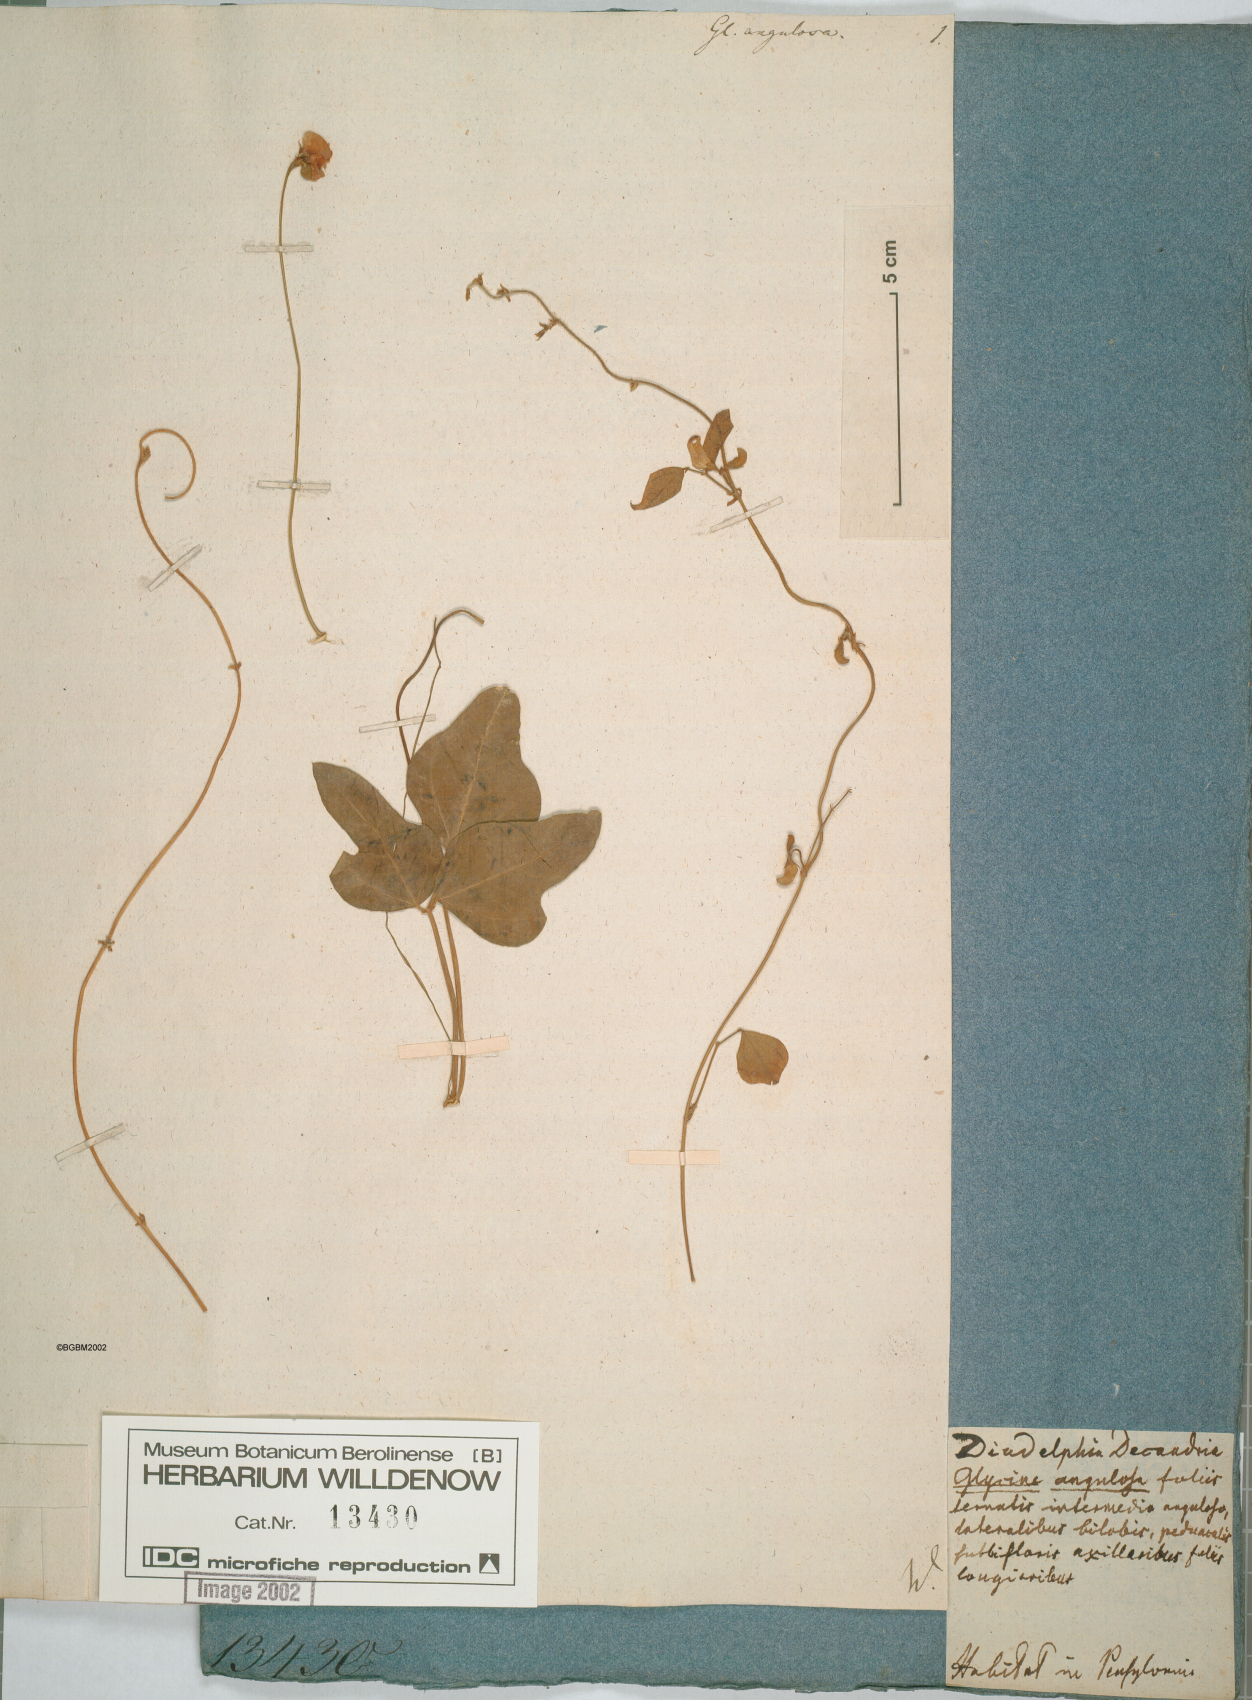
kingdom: Plantae
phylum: Tracheophyta
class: Magnoliopsida
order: Fabales
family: Fabaceae
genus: Strophostyles
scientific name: Strophostyles helvola
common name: Trailing wild bean
